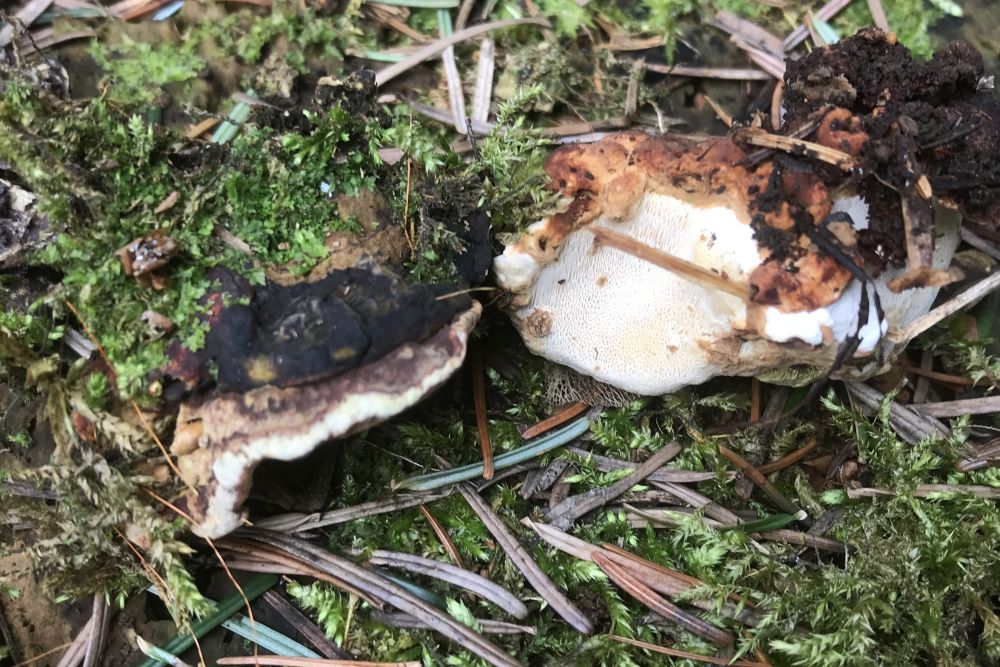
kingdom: Fungi
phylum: Basidiomycota
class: Agaricomycetes
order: Russulales
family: Bondarzewiaceae
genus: Heterobasidion
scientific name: Heterobasidion annosum
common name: almindelig rodfordærver
